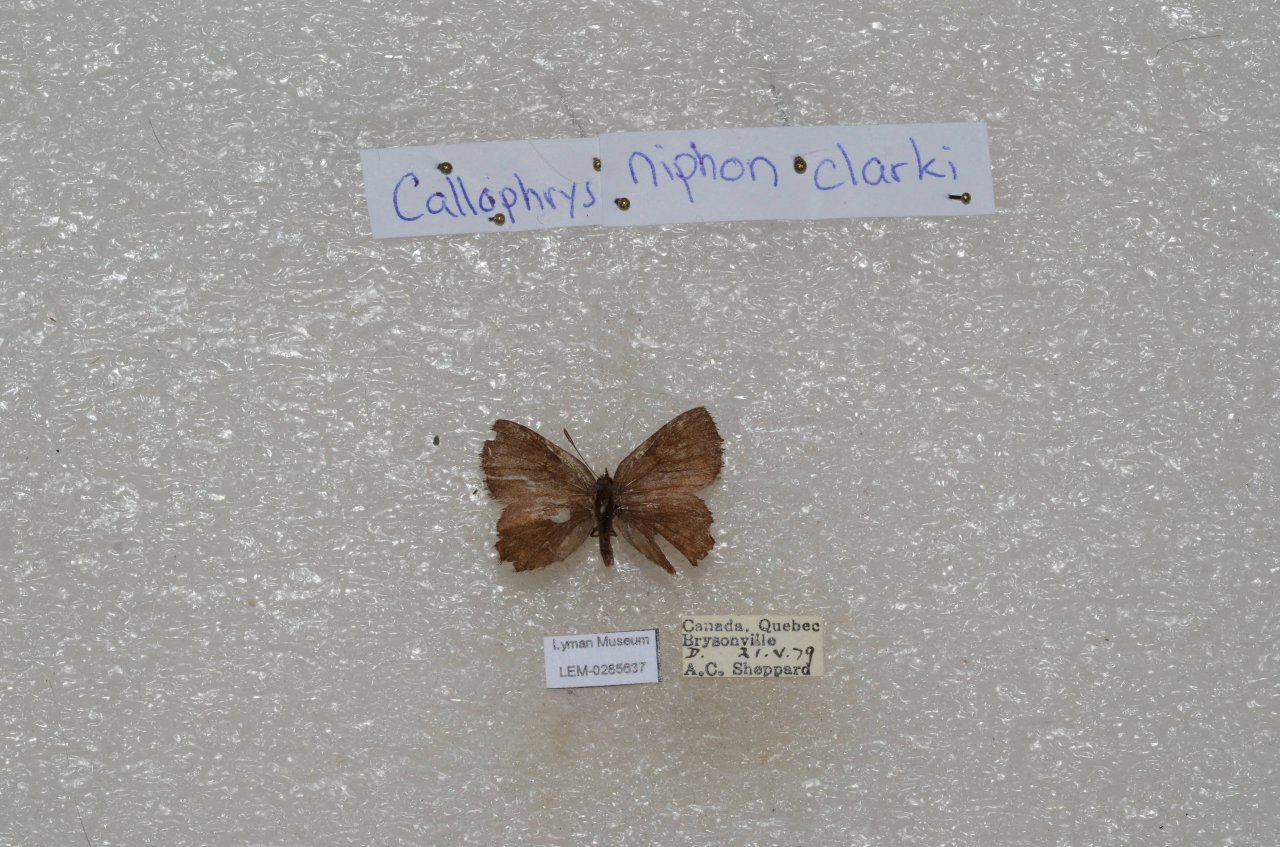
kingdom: Animalia
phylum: Arthropoda
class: Insecta
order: Lepidoptera
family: Lycaenidae
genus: Incisalia
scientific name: Incisalia niphon
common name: Eastern Pine Elfin
